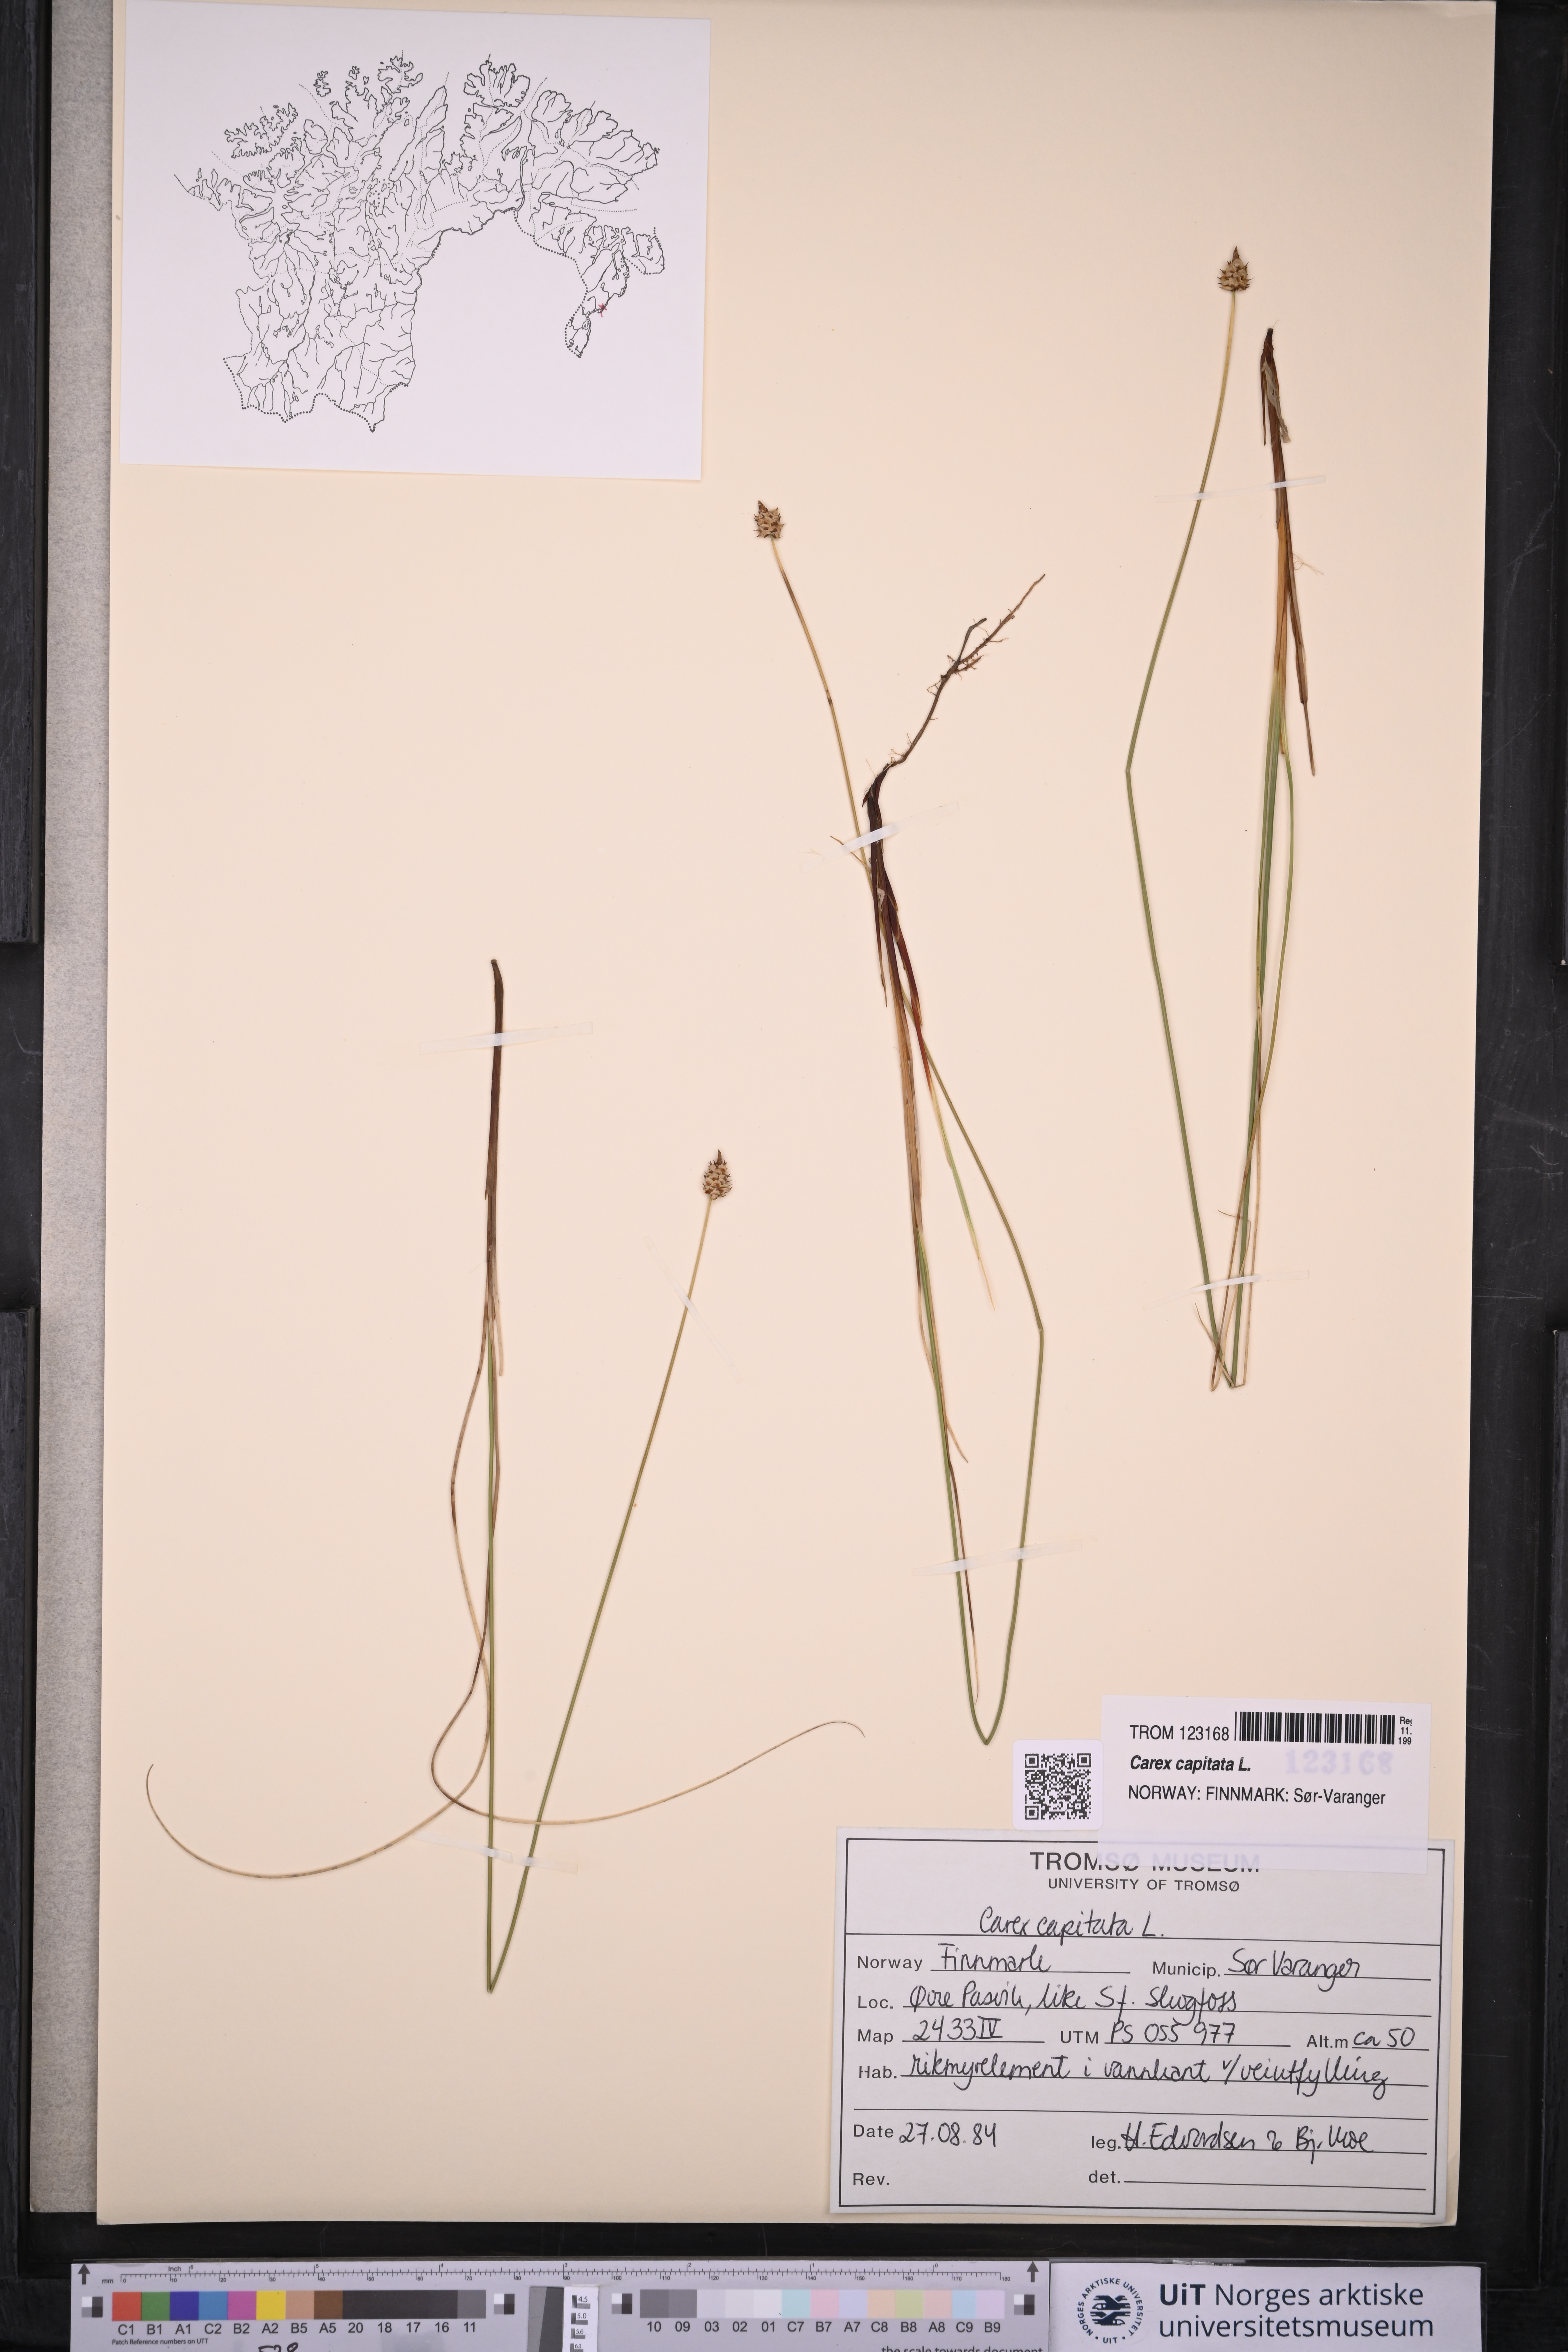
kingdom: Plantae
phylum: Tracheophyta
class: Liliopsida
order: Poales
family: Cyperaceae
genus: Carex
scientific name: Carex capitata
